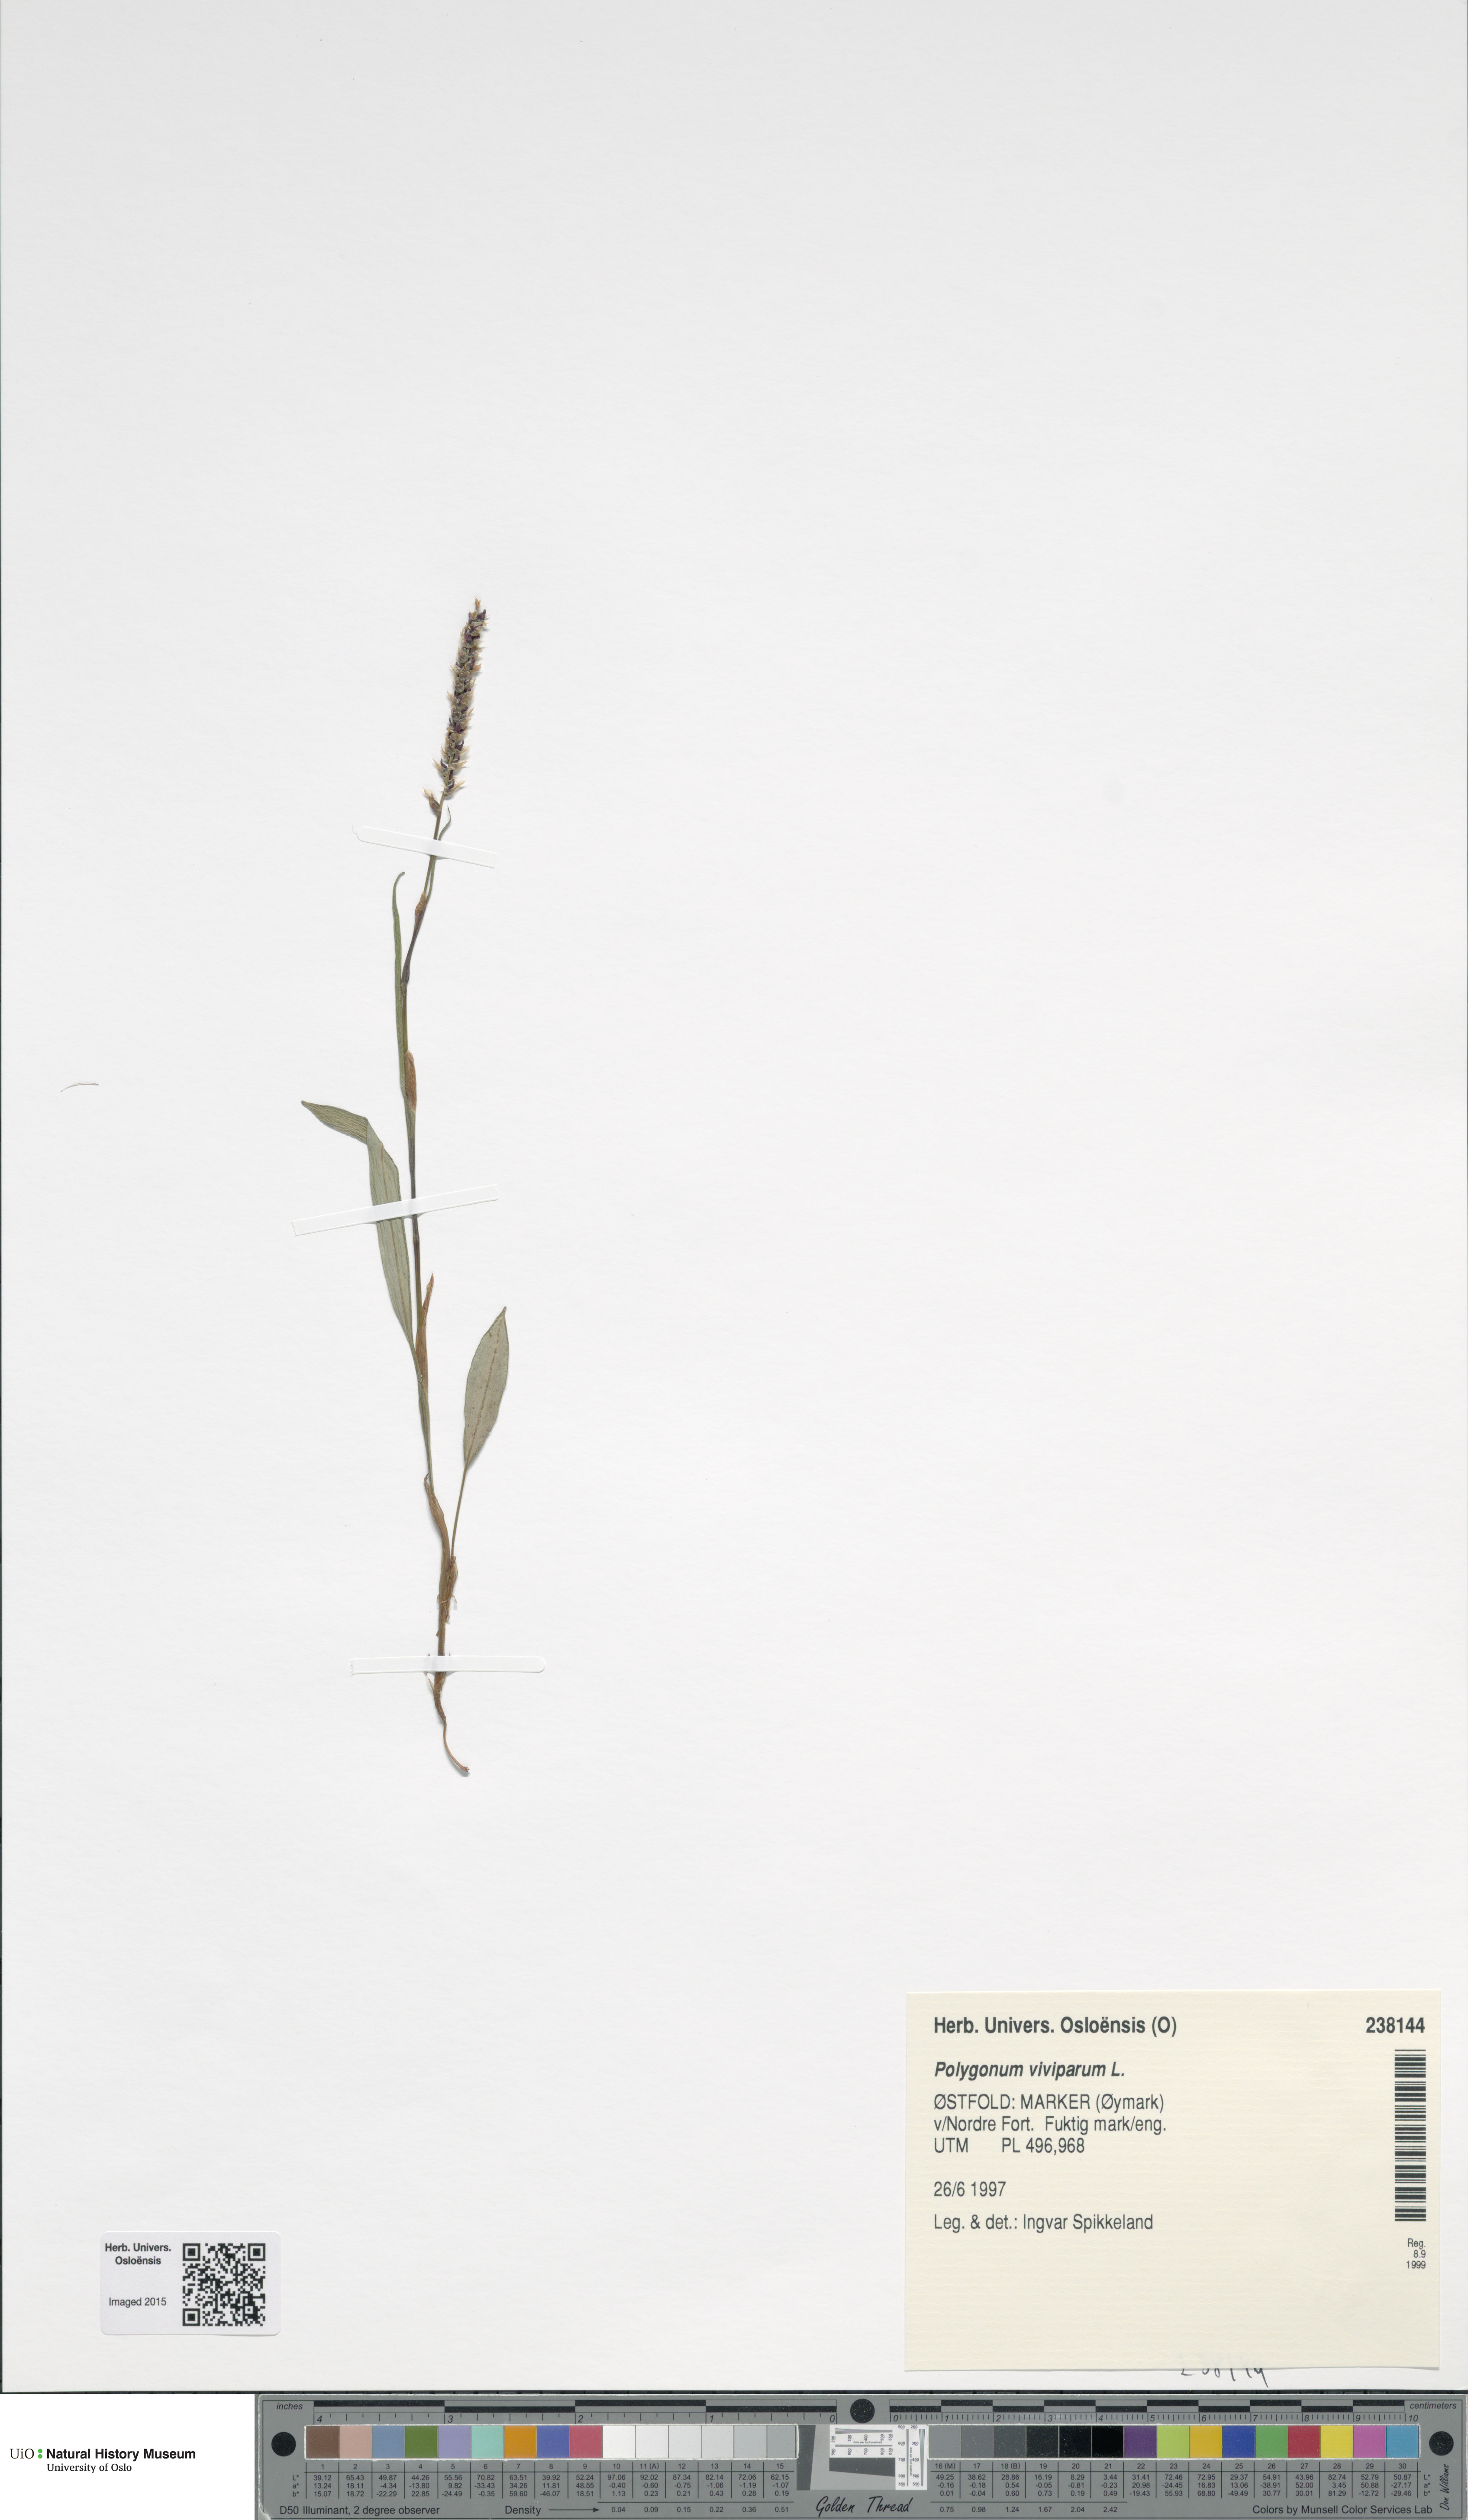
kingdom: Plantae
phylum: Tracheophyta
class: Magnoliopsida
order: Caryophyllales
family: Polygonaceae
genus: Bistorta
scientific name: Bistorta vivipara
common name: Alpine bistort
